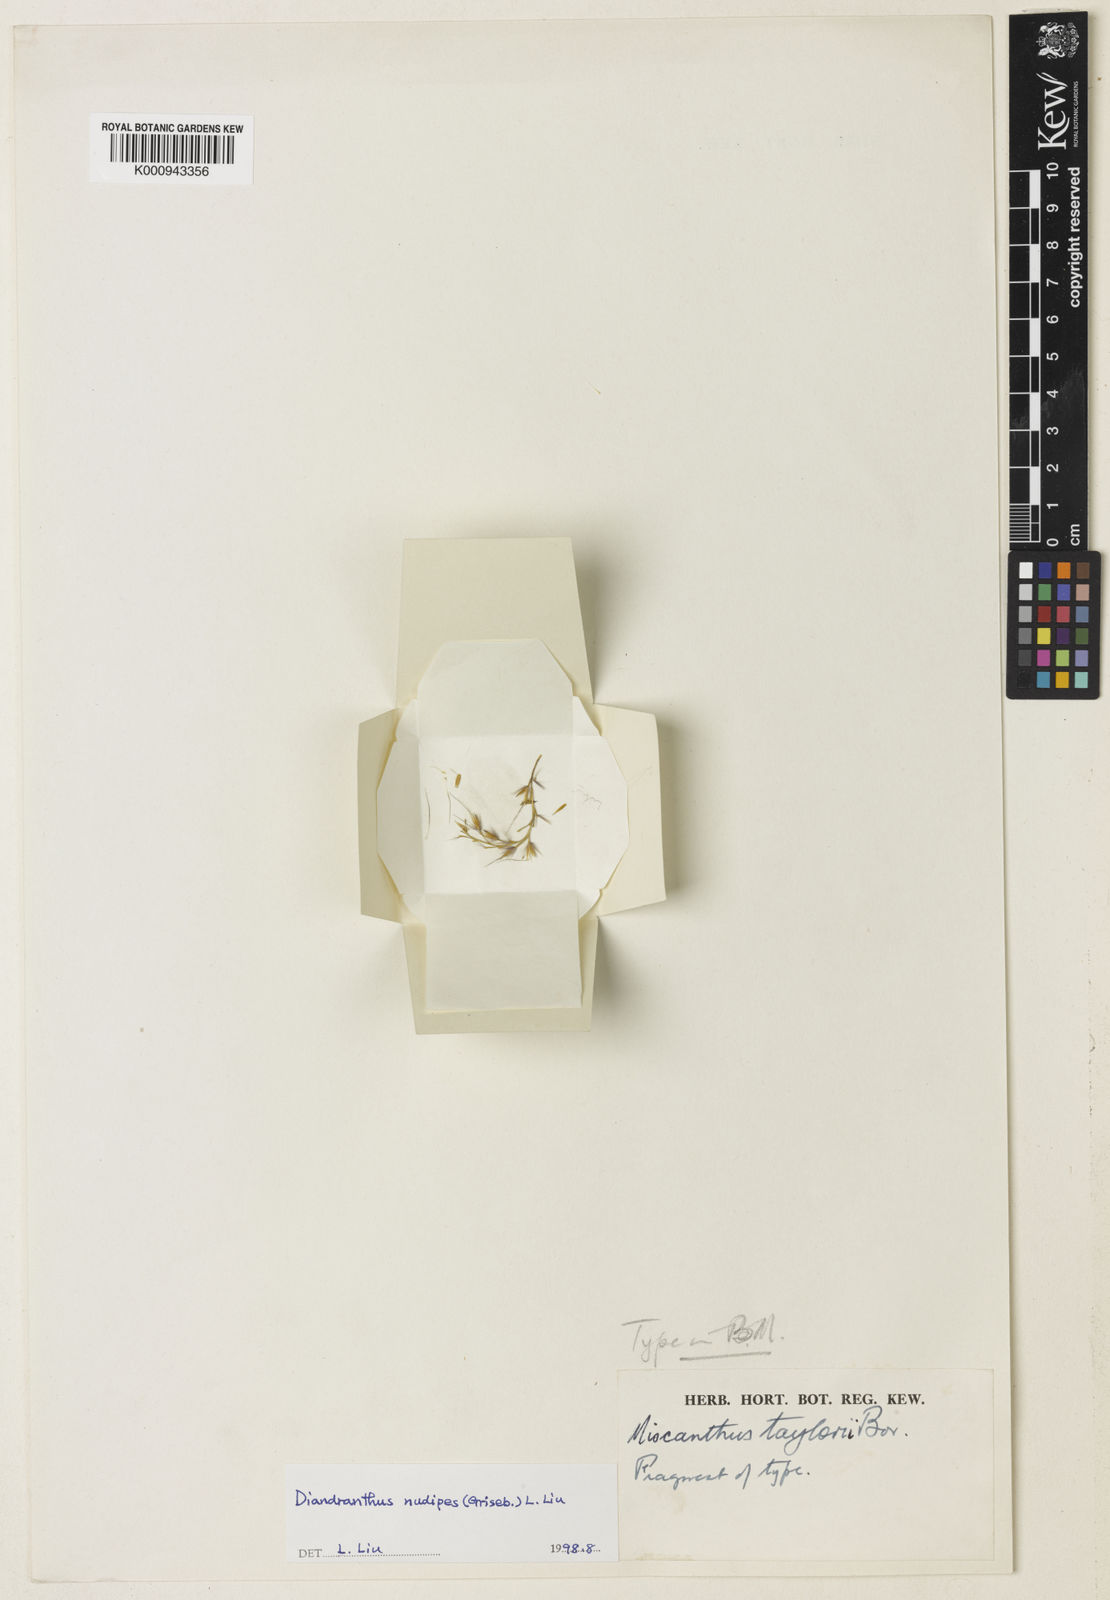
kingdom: Plantae
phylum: Tracheophyta
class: Liliopsida
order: Poales
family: Poaceae
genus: Miscanthus
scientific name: Miscanthus nudipes
